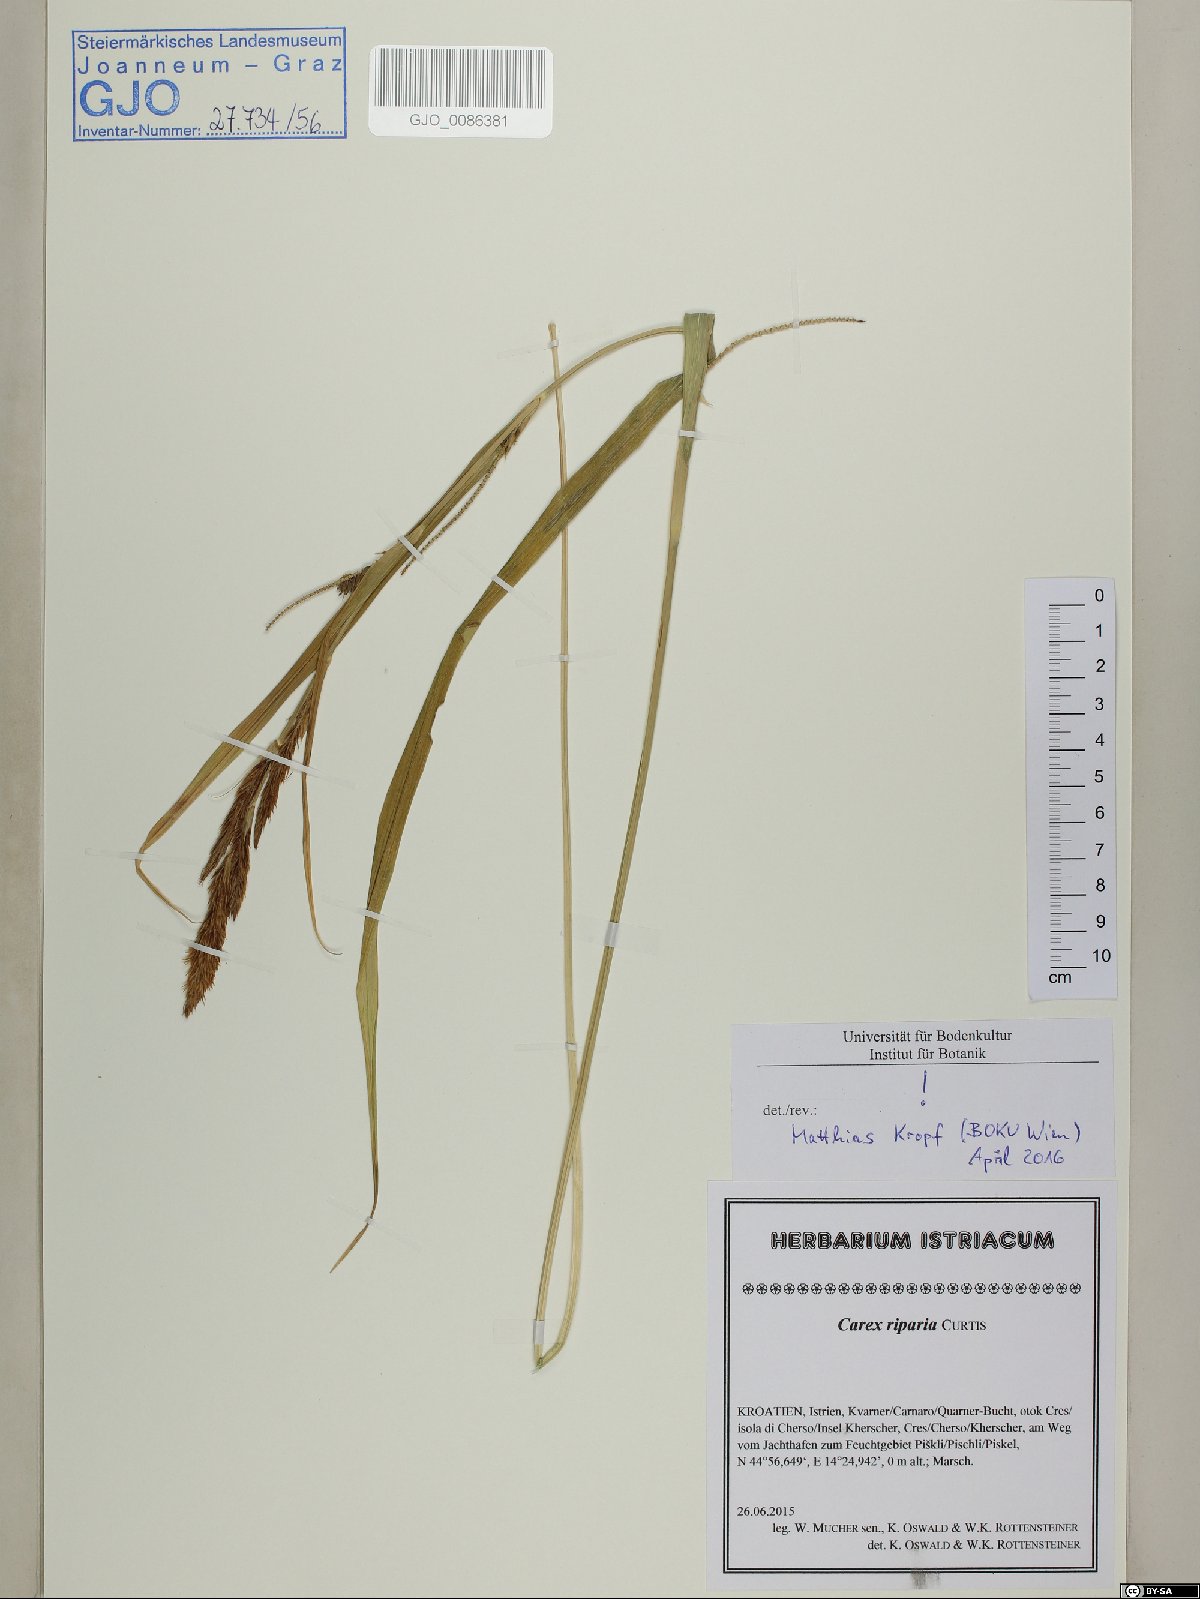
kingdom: Plantae
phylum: Tracheophyta
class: Liliopsida
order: Poales
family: Cyperaceae
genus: Carex
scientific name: Carex riparia
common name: Greater pond-sedge
